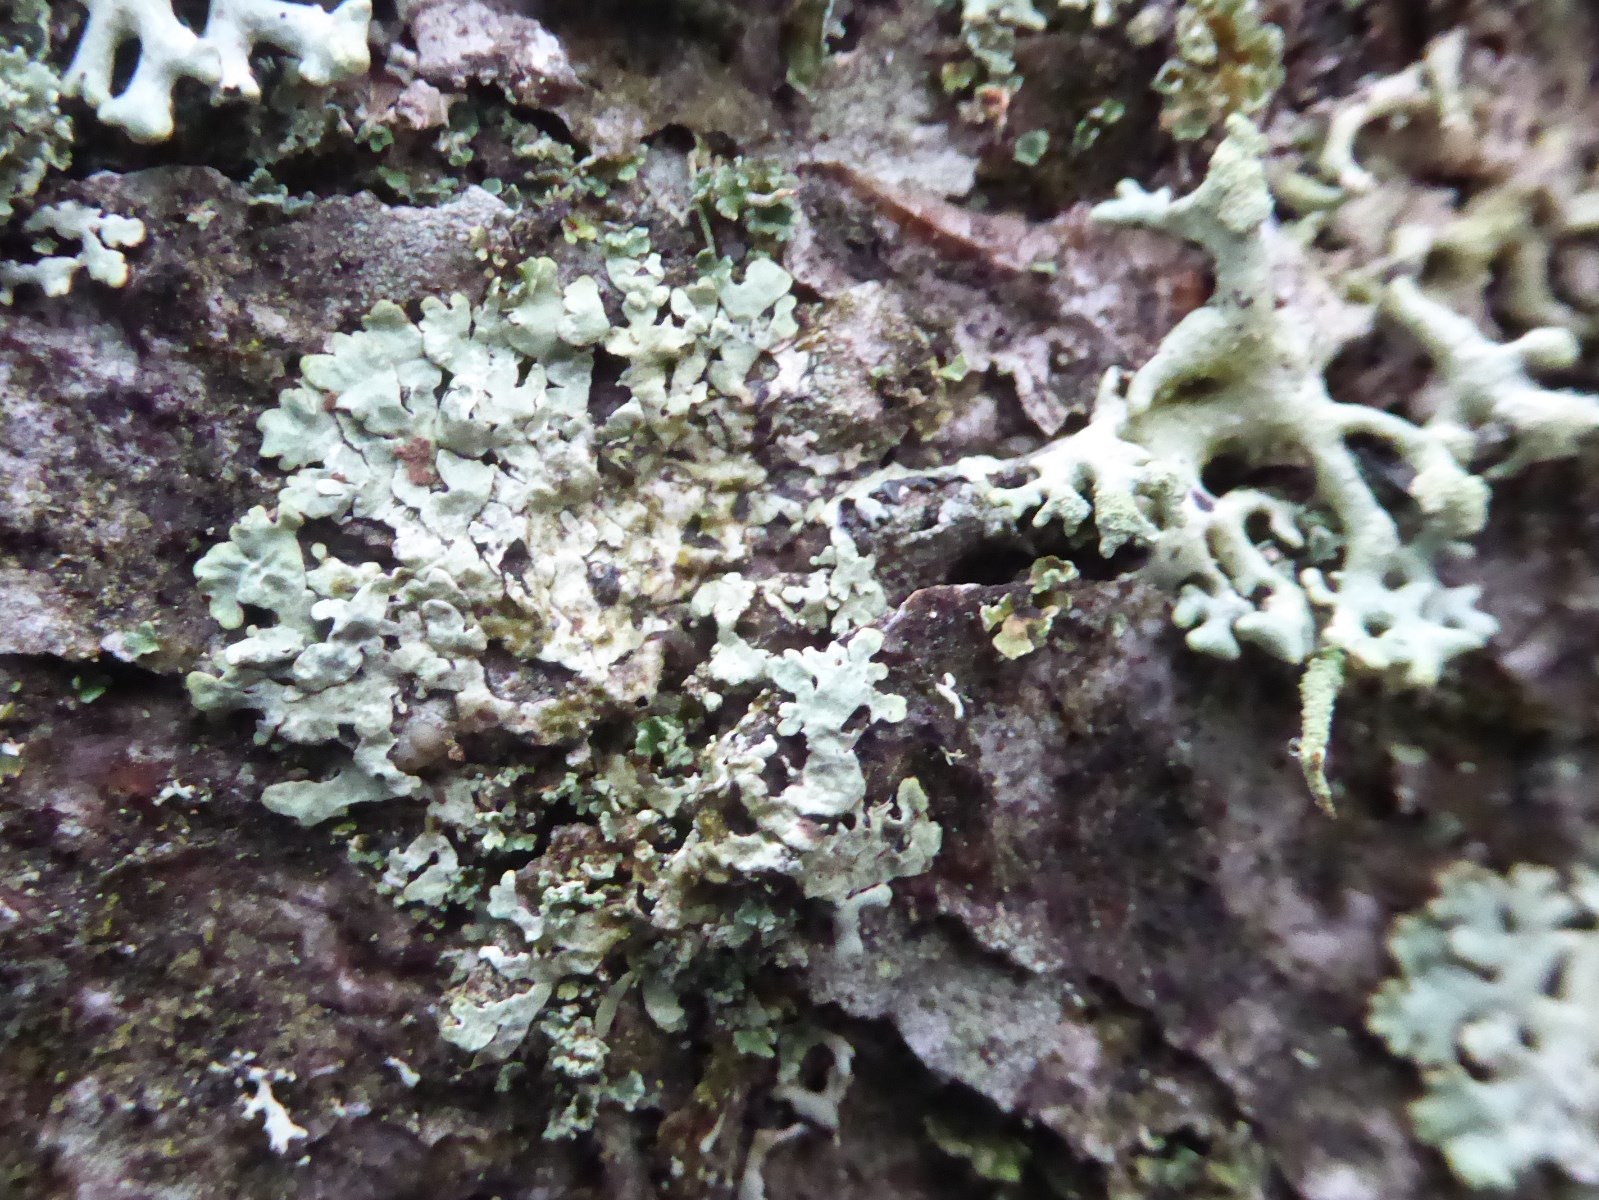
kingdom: Fungi
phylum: Ascomycota
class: Lecanoromycetes
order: Lecanorales
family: Parmeliaceae
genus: Parmeliopsis
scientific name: Parmeliopsis ambigua
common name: gul stolpelav
